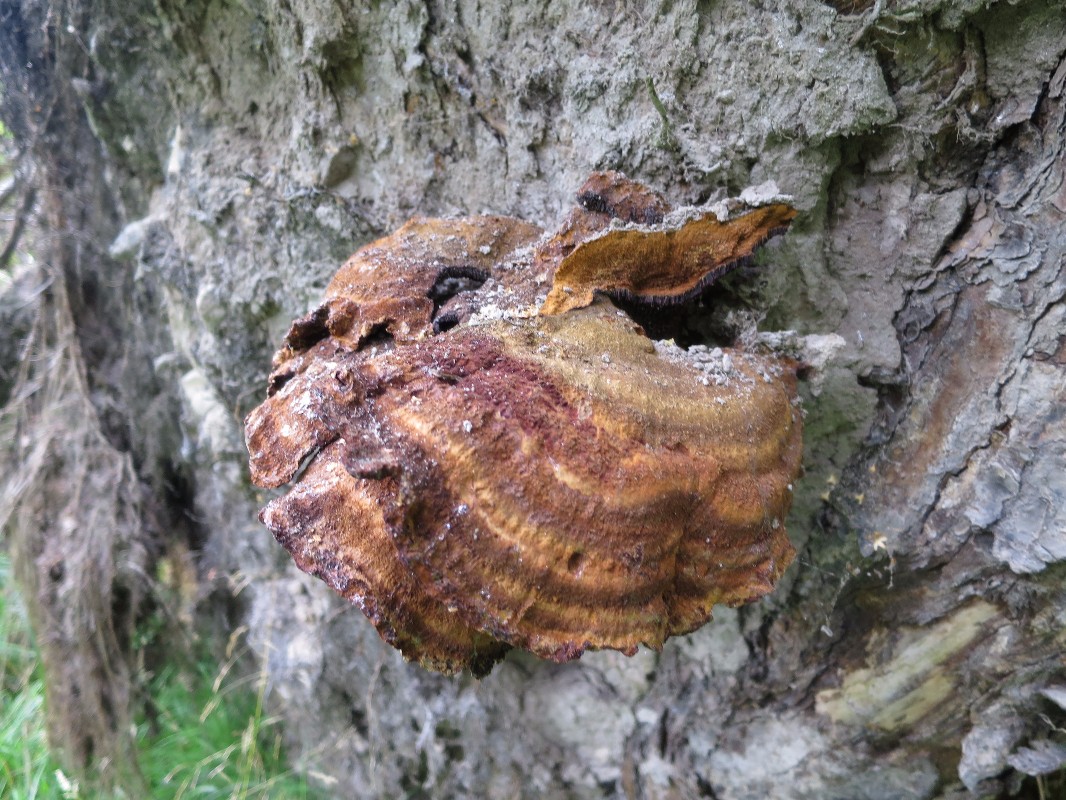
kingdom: Fungi
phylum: Basidiomycota
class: Agaricomycetes
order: Polyporales
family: Ischnodermataceae
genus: Ischnoderma
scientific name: Ischnoderma benzoinum
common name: gran-tjæreporesvamp
